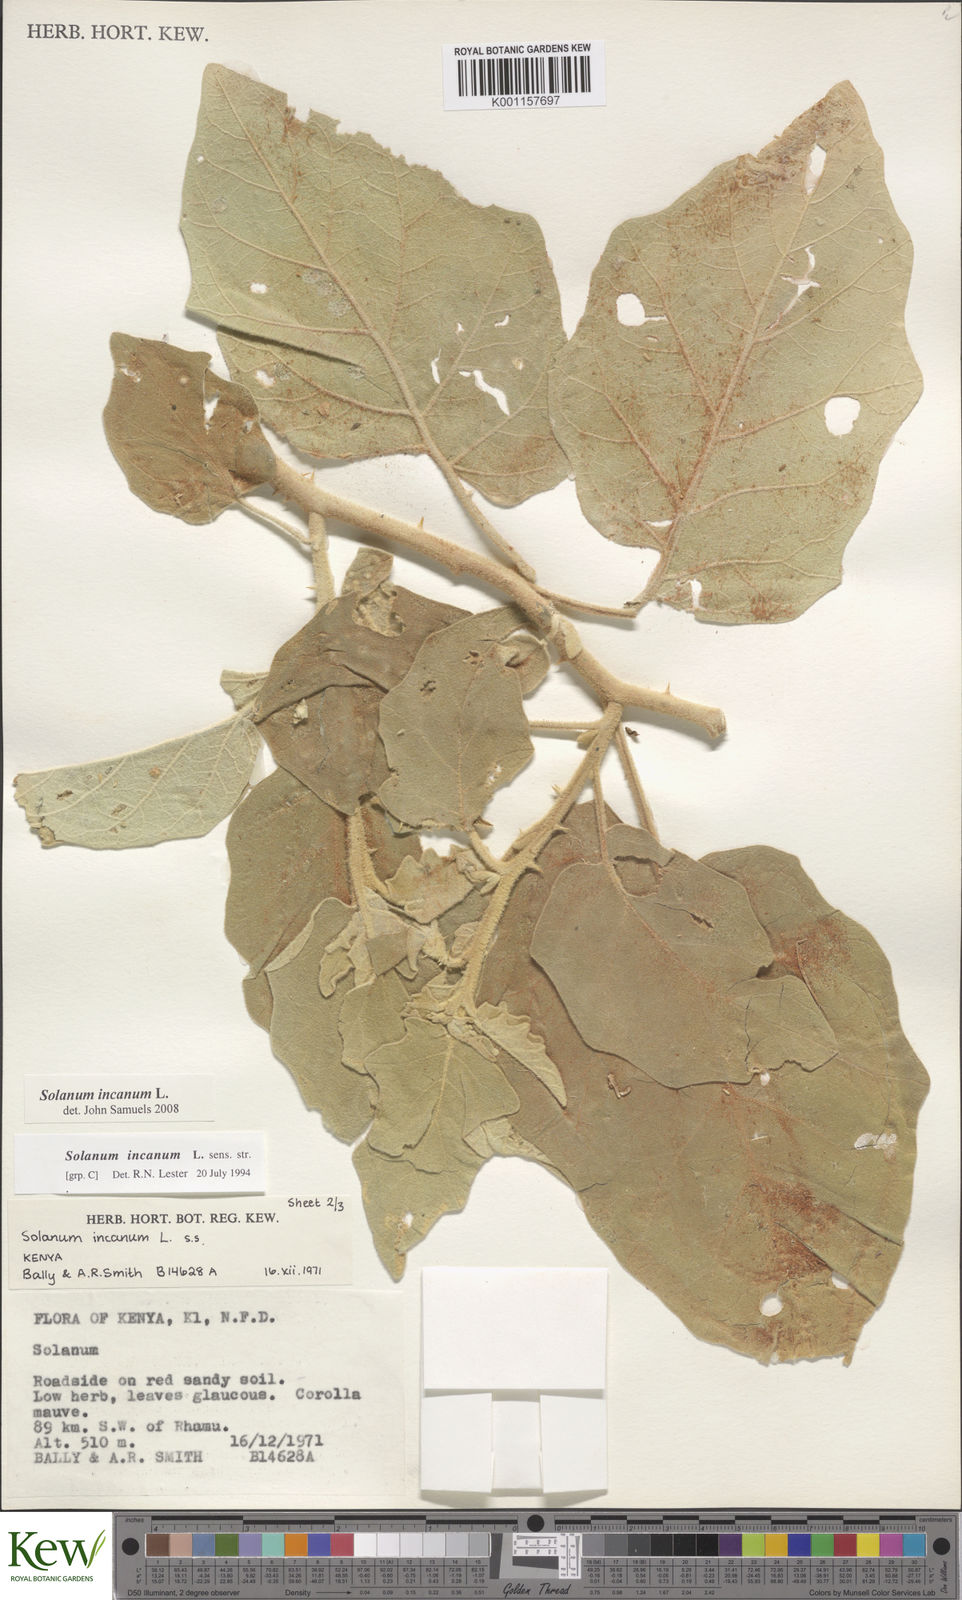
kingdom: Plantae
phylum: Tracheophyta
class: Magnoliopsida
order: Solanales
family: Solanaceae
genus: Solanum
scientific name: Solanum incanum
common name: Bitter apple
